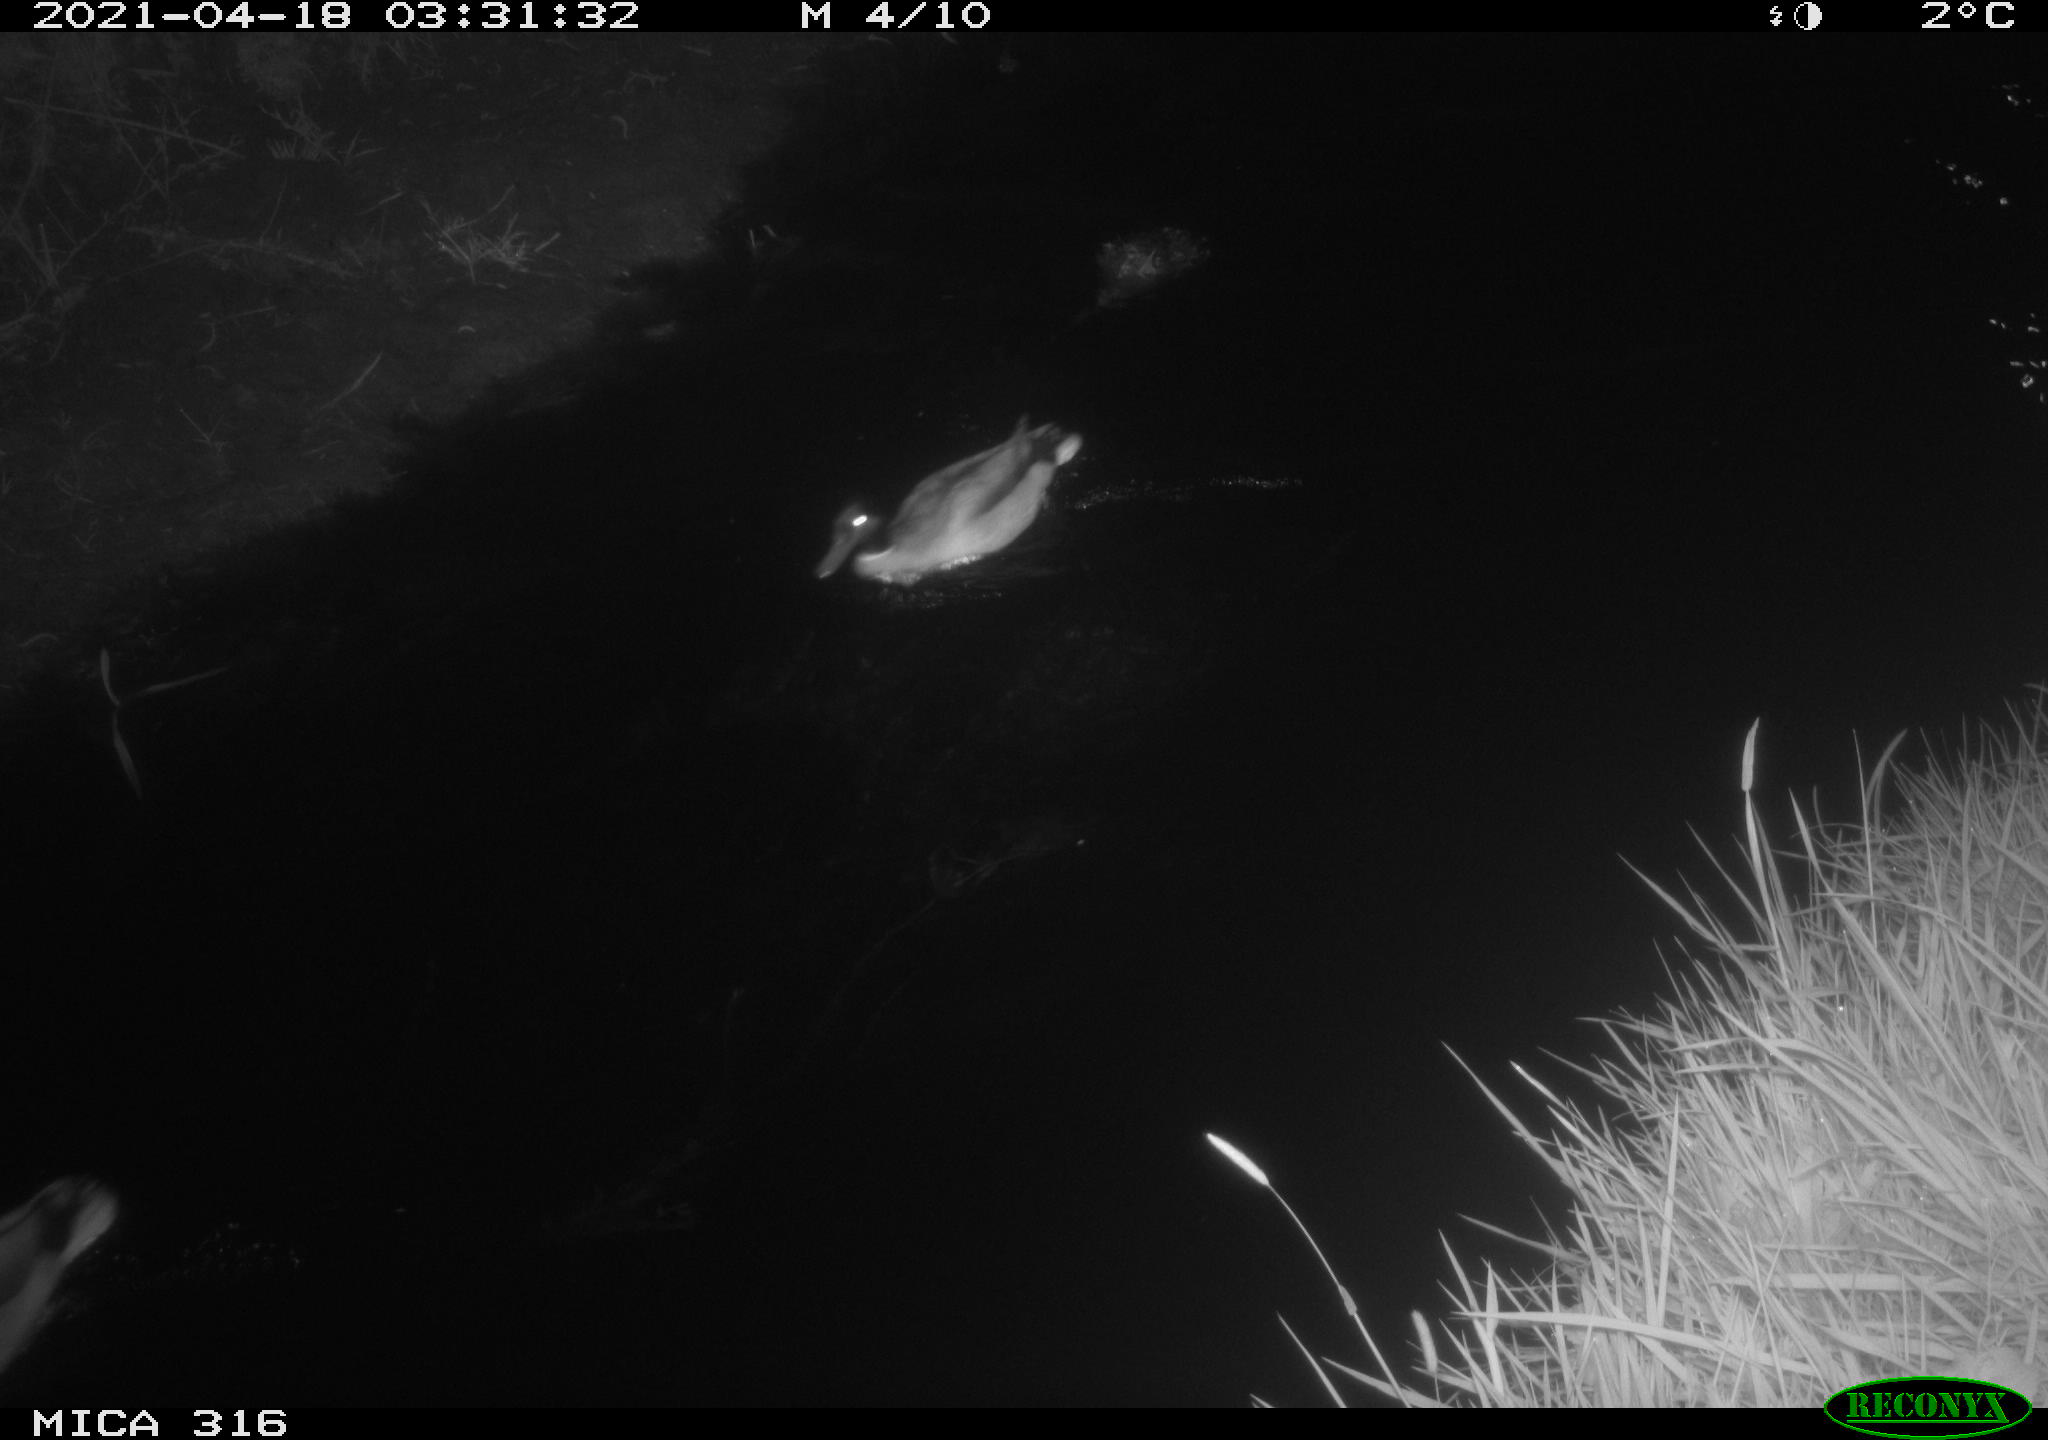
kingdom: Animalia
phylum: Chordata
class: Aves
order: Anseriformes
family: Anatidae
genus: Anas
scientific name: Anas platyrhynchos
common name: Mallard
